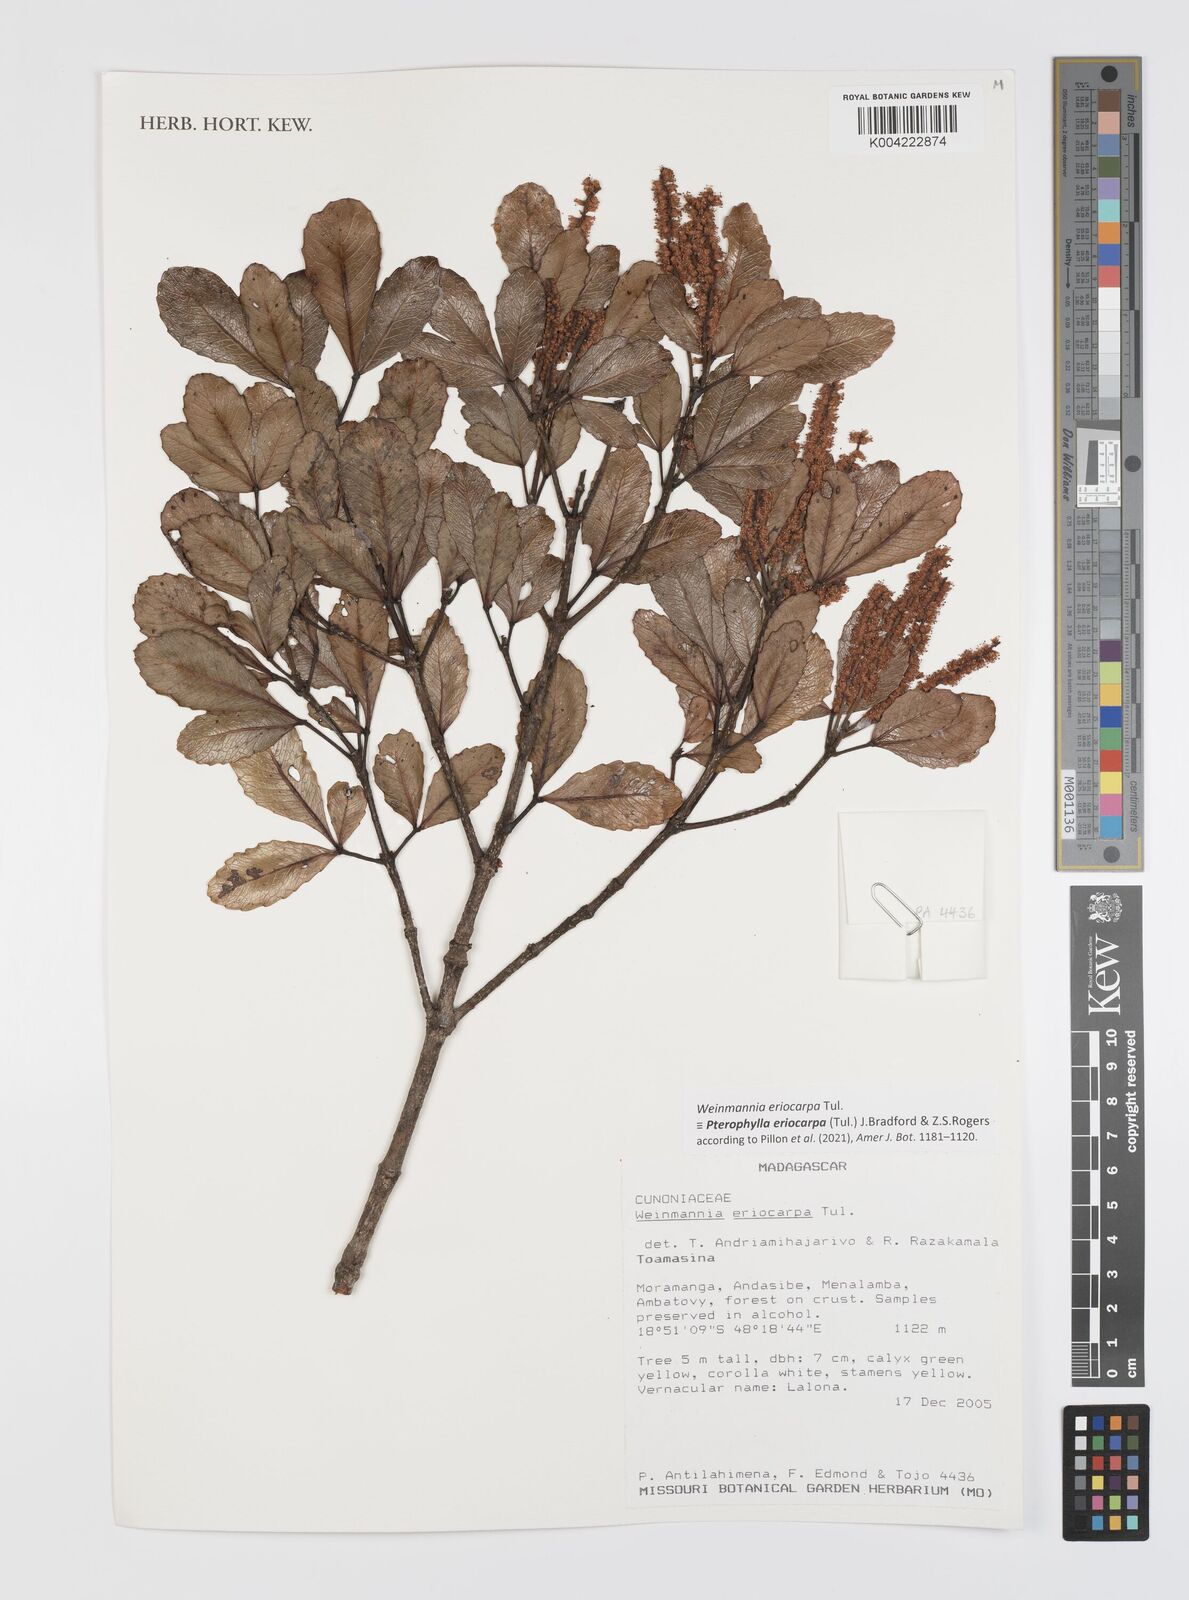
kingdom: Plantae
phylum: Tracheophyta
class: Magnoliopsida
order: Oxalidales
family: Cunoniaceae
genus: Pterophylla
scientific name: Pterophylla eriocarpa
